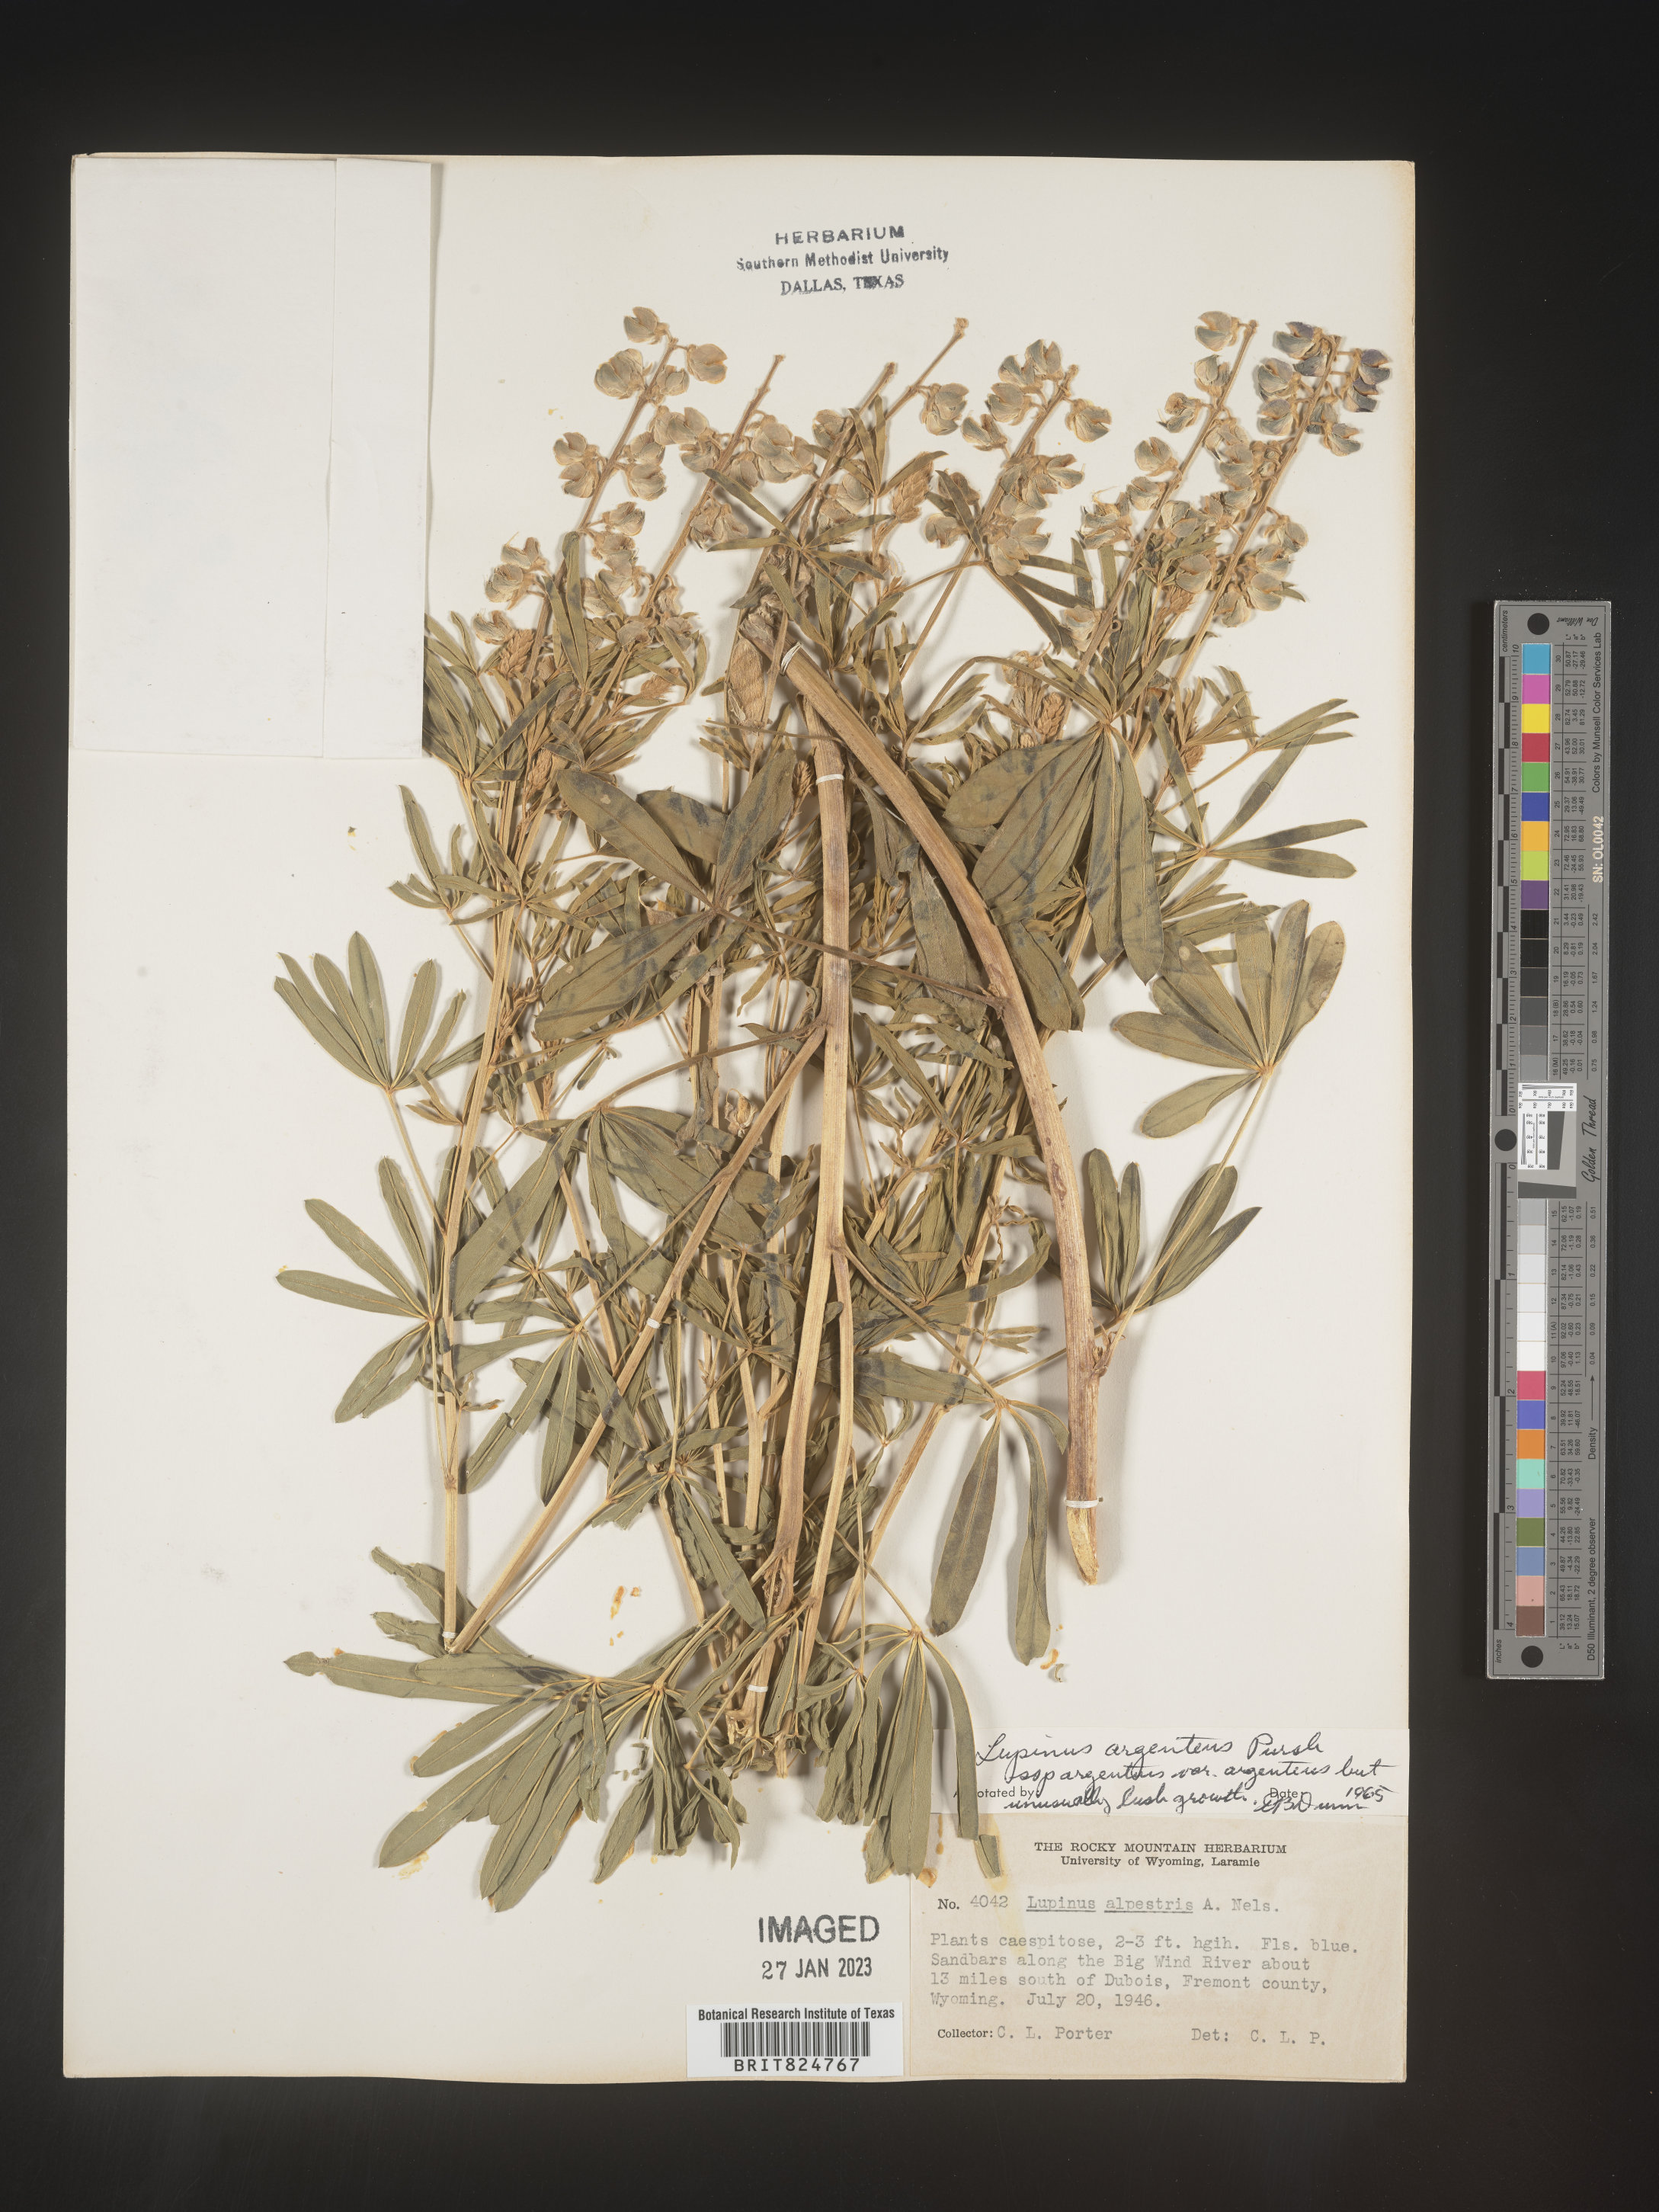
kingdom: Plantae
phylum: Tracheophyta
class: Magnoliopsida
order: Fabales
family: Fabaceae
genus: Lupinus
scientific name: Lupinus argenteus
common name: Silvery lupine
